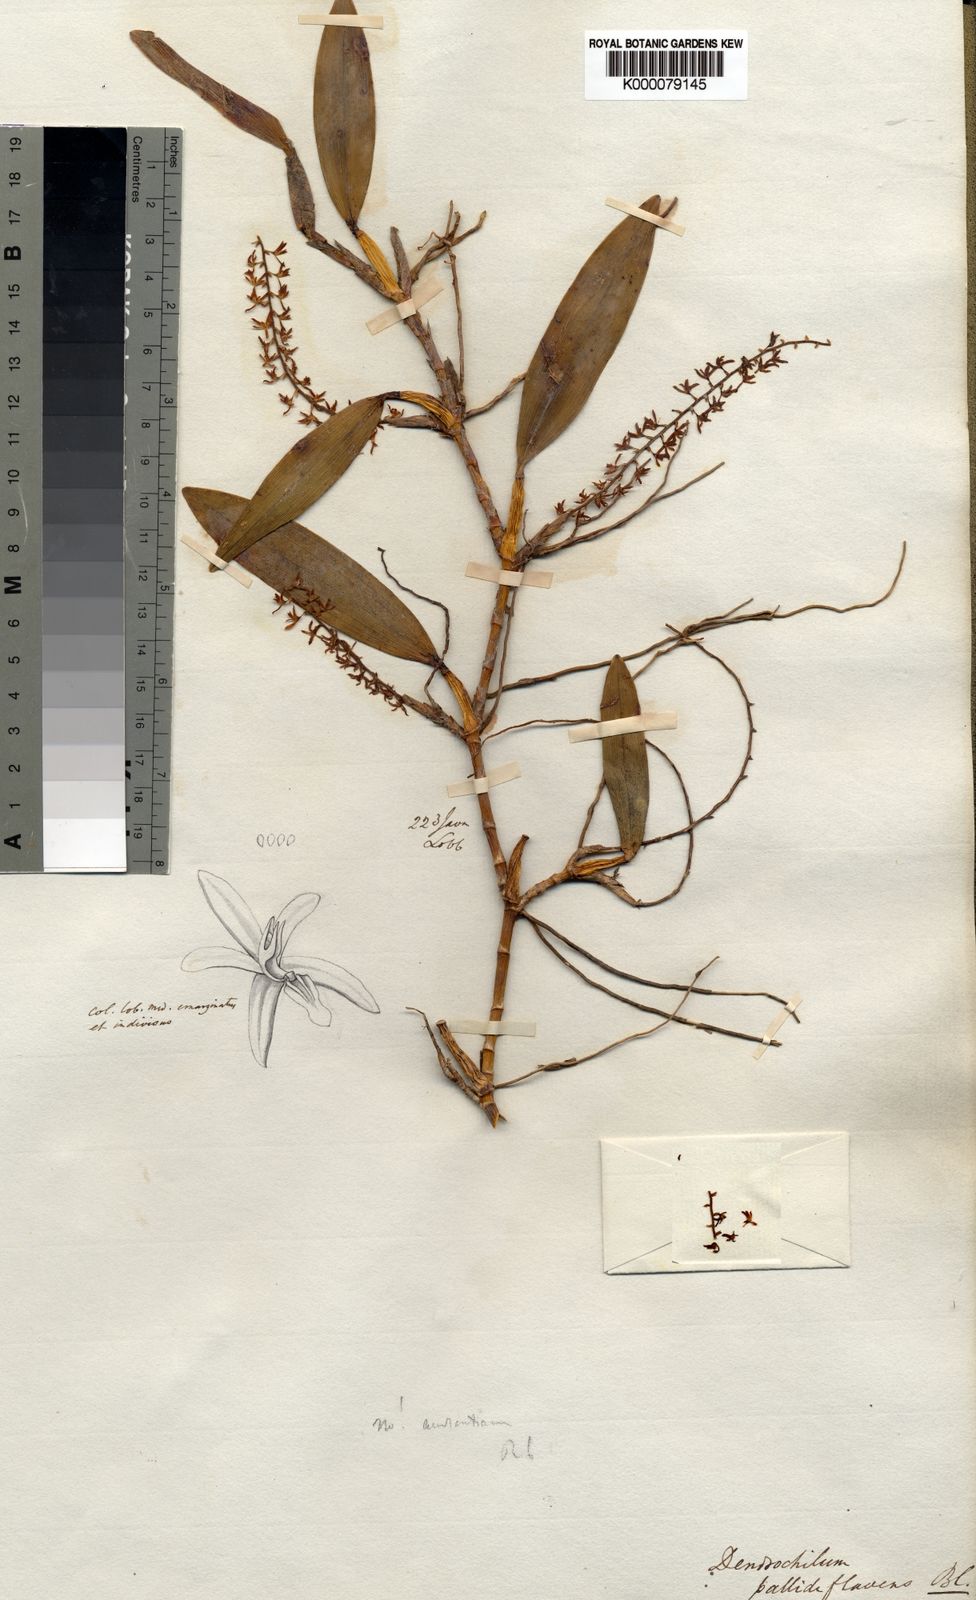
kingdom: Plantae
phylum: Tracheophyta
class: Liliopsida
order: Asparagales
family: Orchidaceae
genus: Coelogyne
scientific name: Coelogyne pallidiflavens
